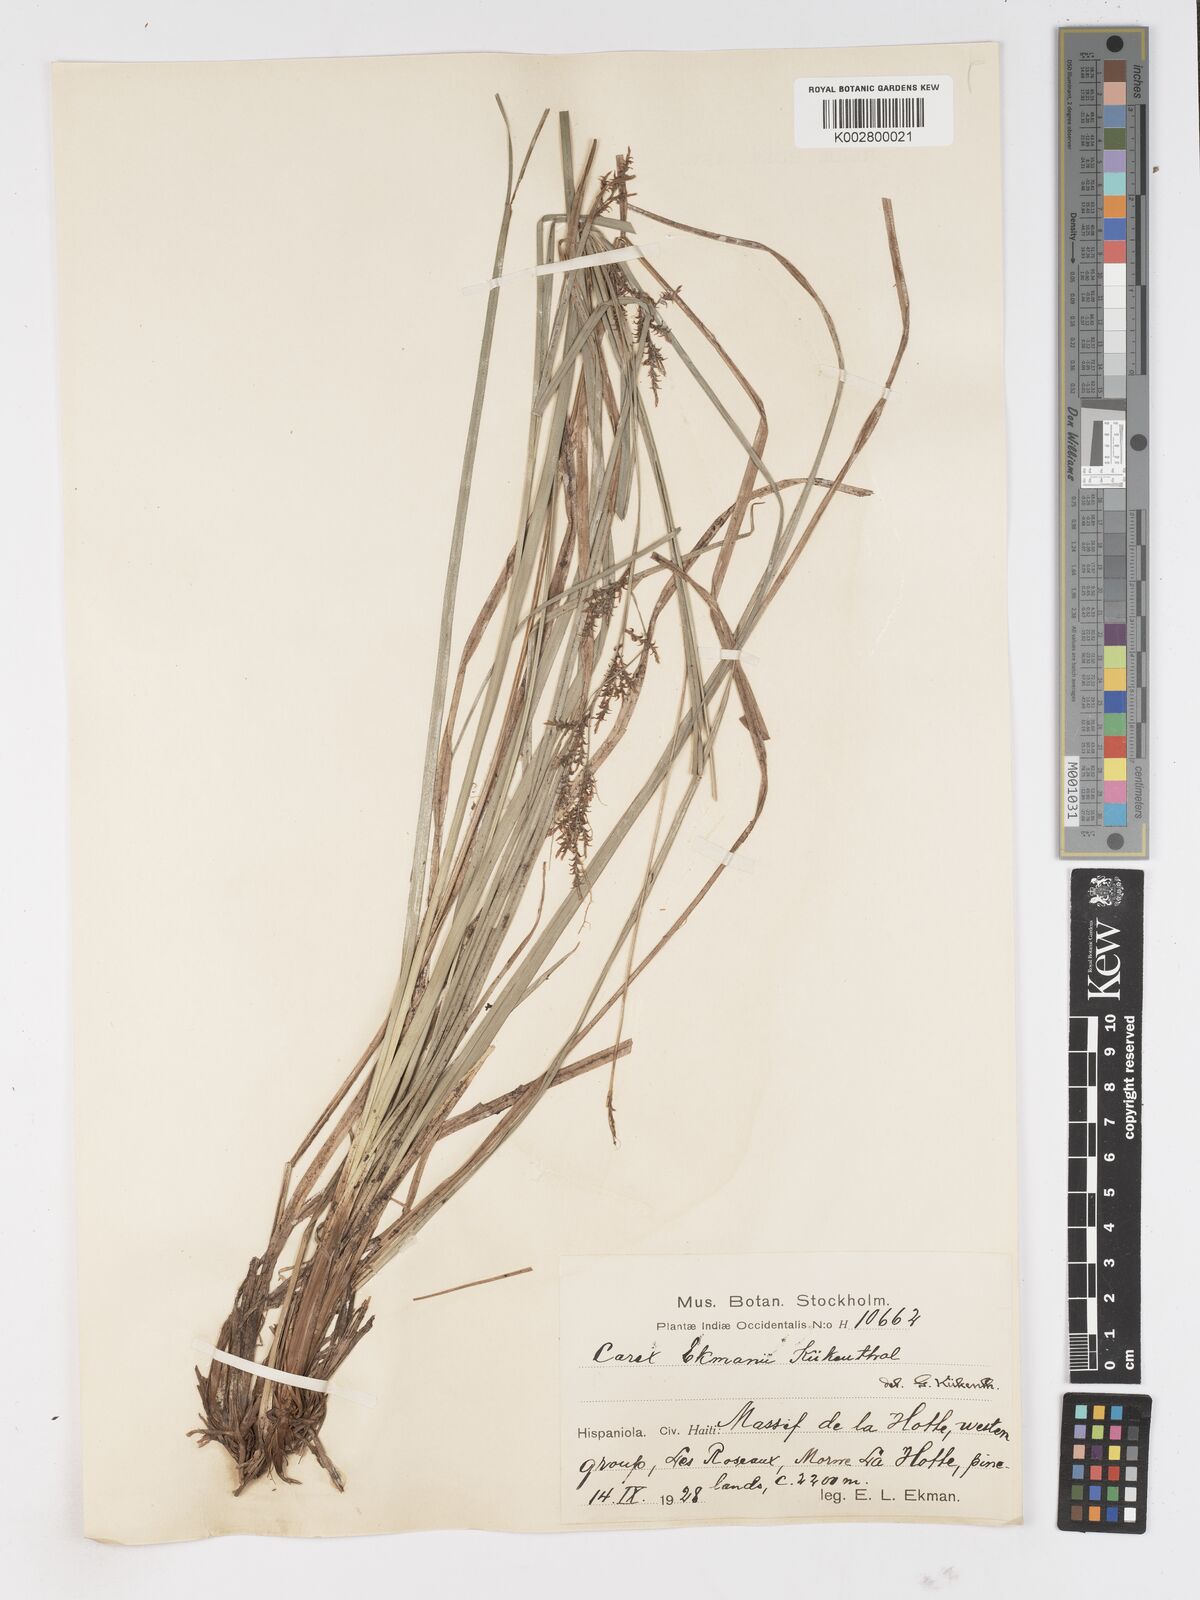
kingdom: Plantae
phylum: Tracheophyta
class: Liliopsida
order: Poales
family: Cyperaceae
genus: Carex
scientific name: Carex ekmanii
